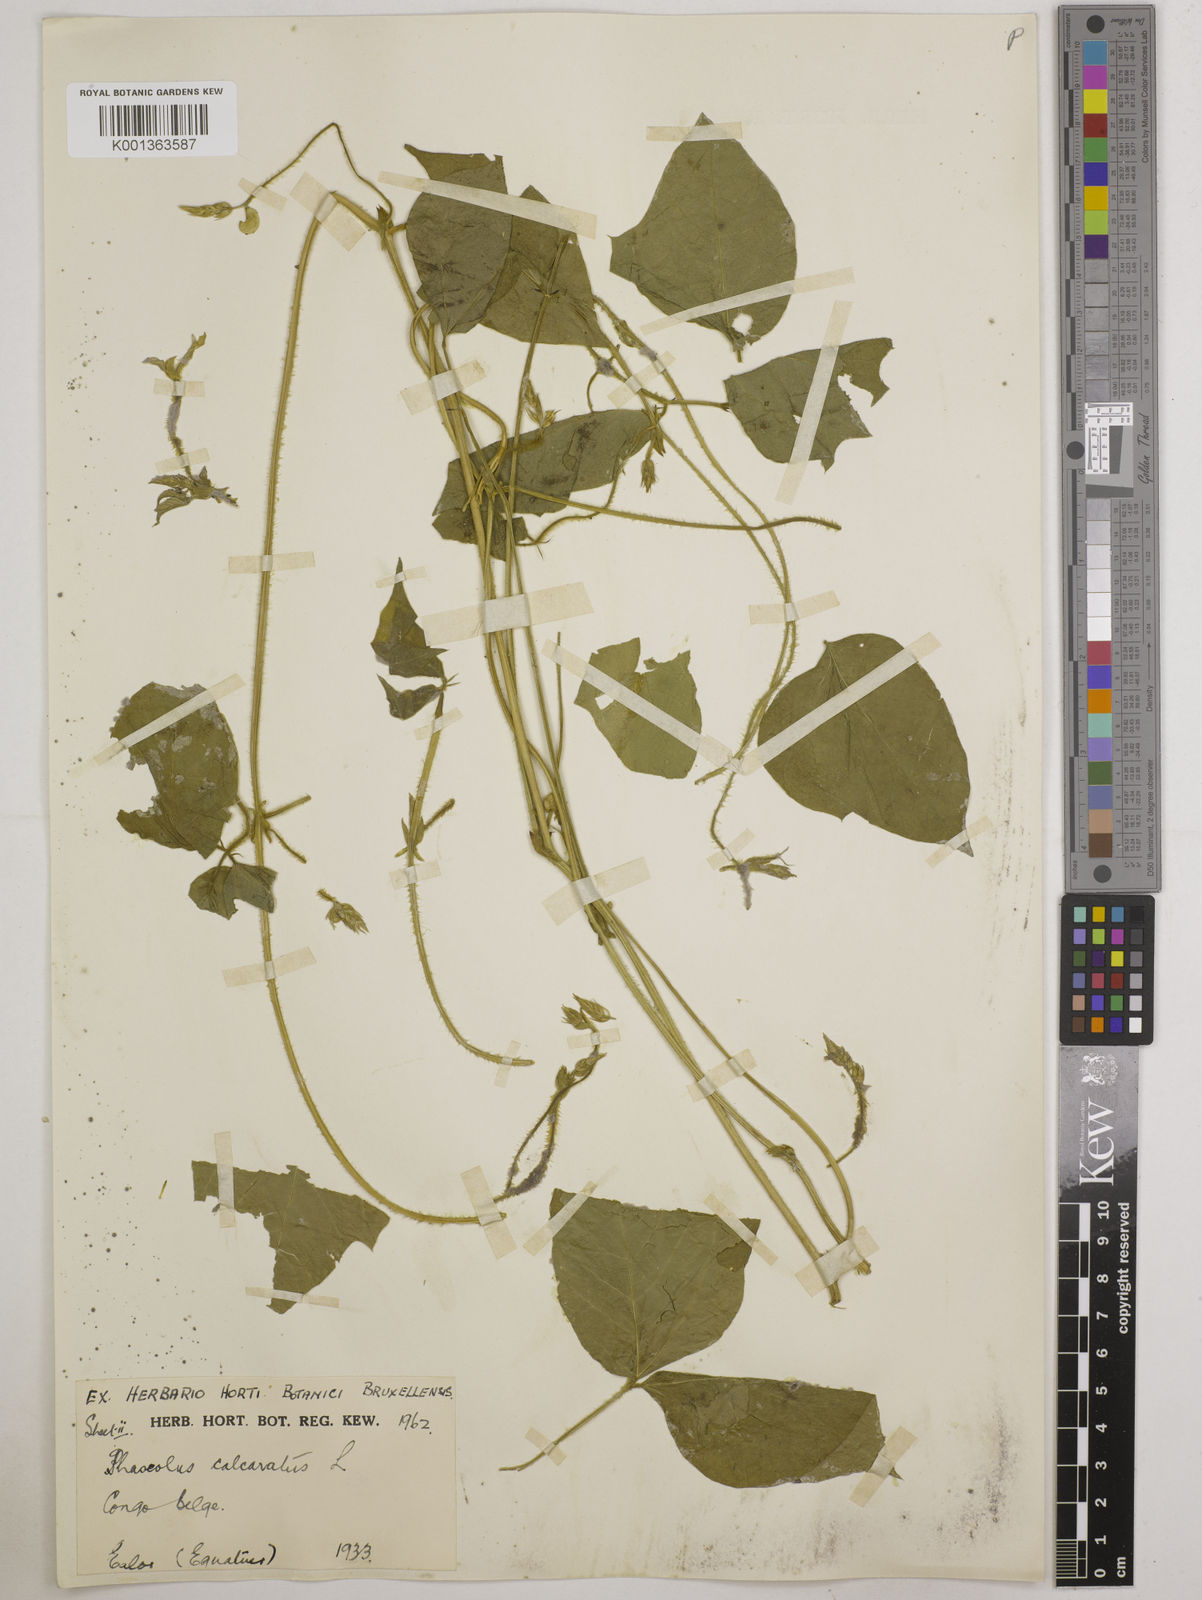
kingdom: Plantae
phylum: Tracheophyta
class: Magnoliopsida
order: Fabales
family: Fabaceae
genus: Vigna
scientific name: Vigna umbellata
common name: Oriental-bean
